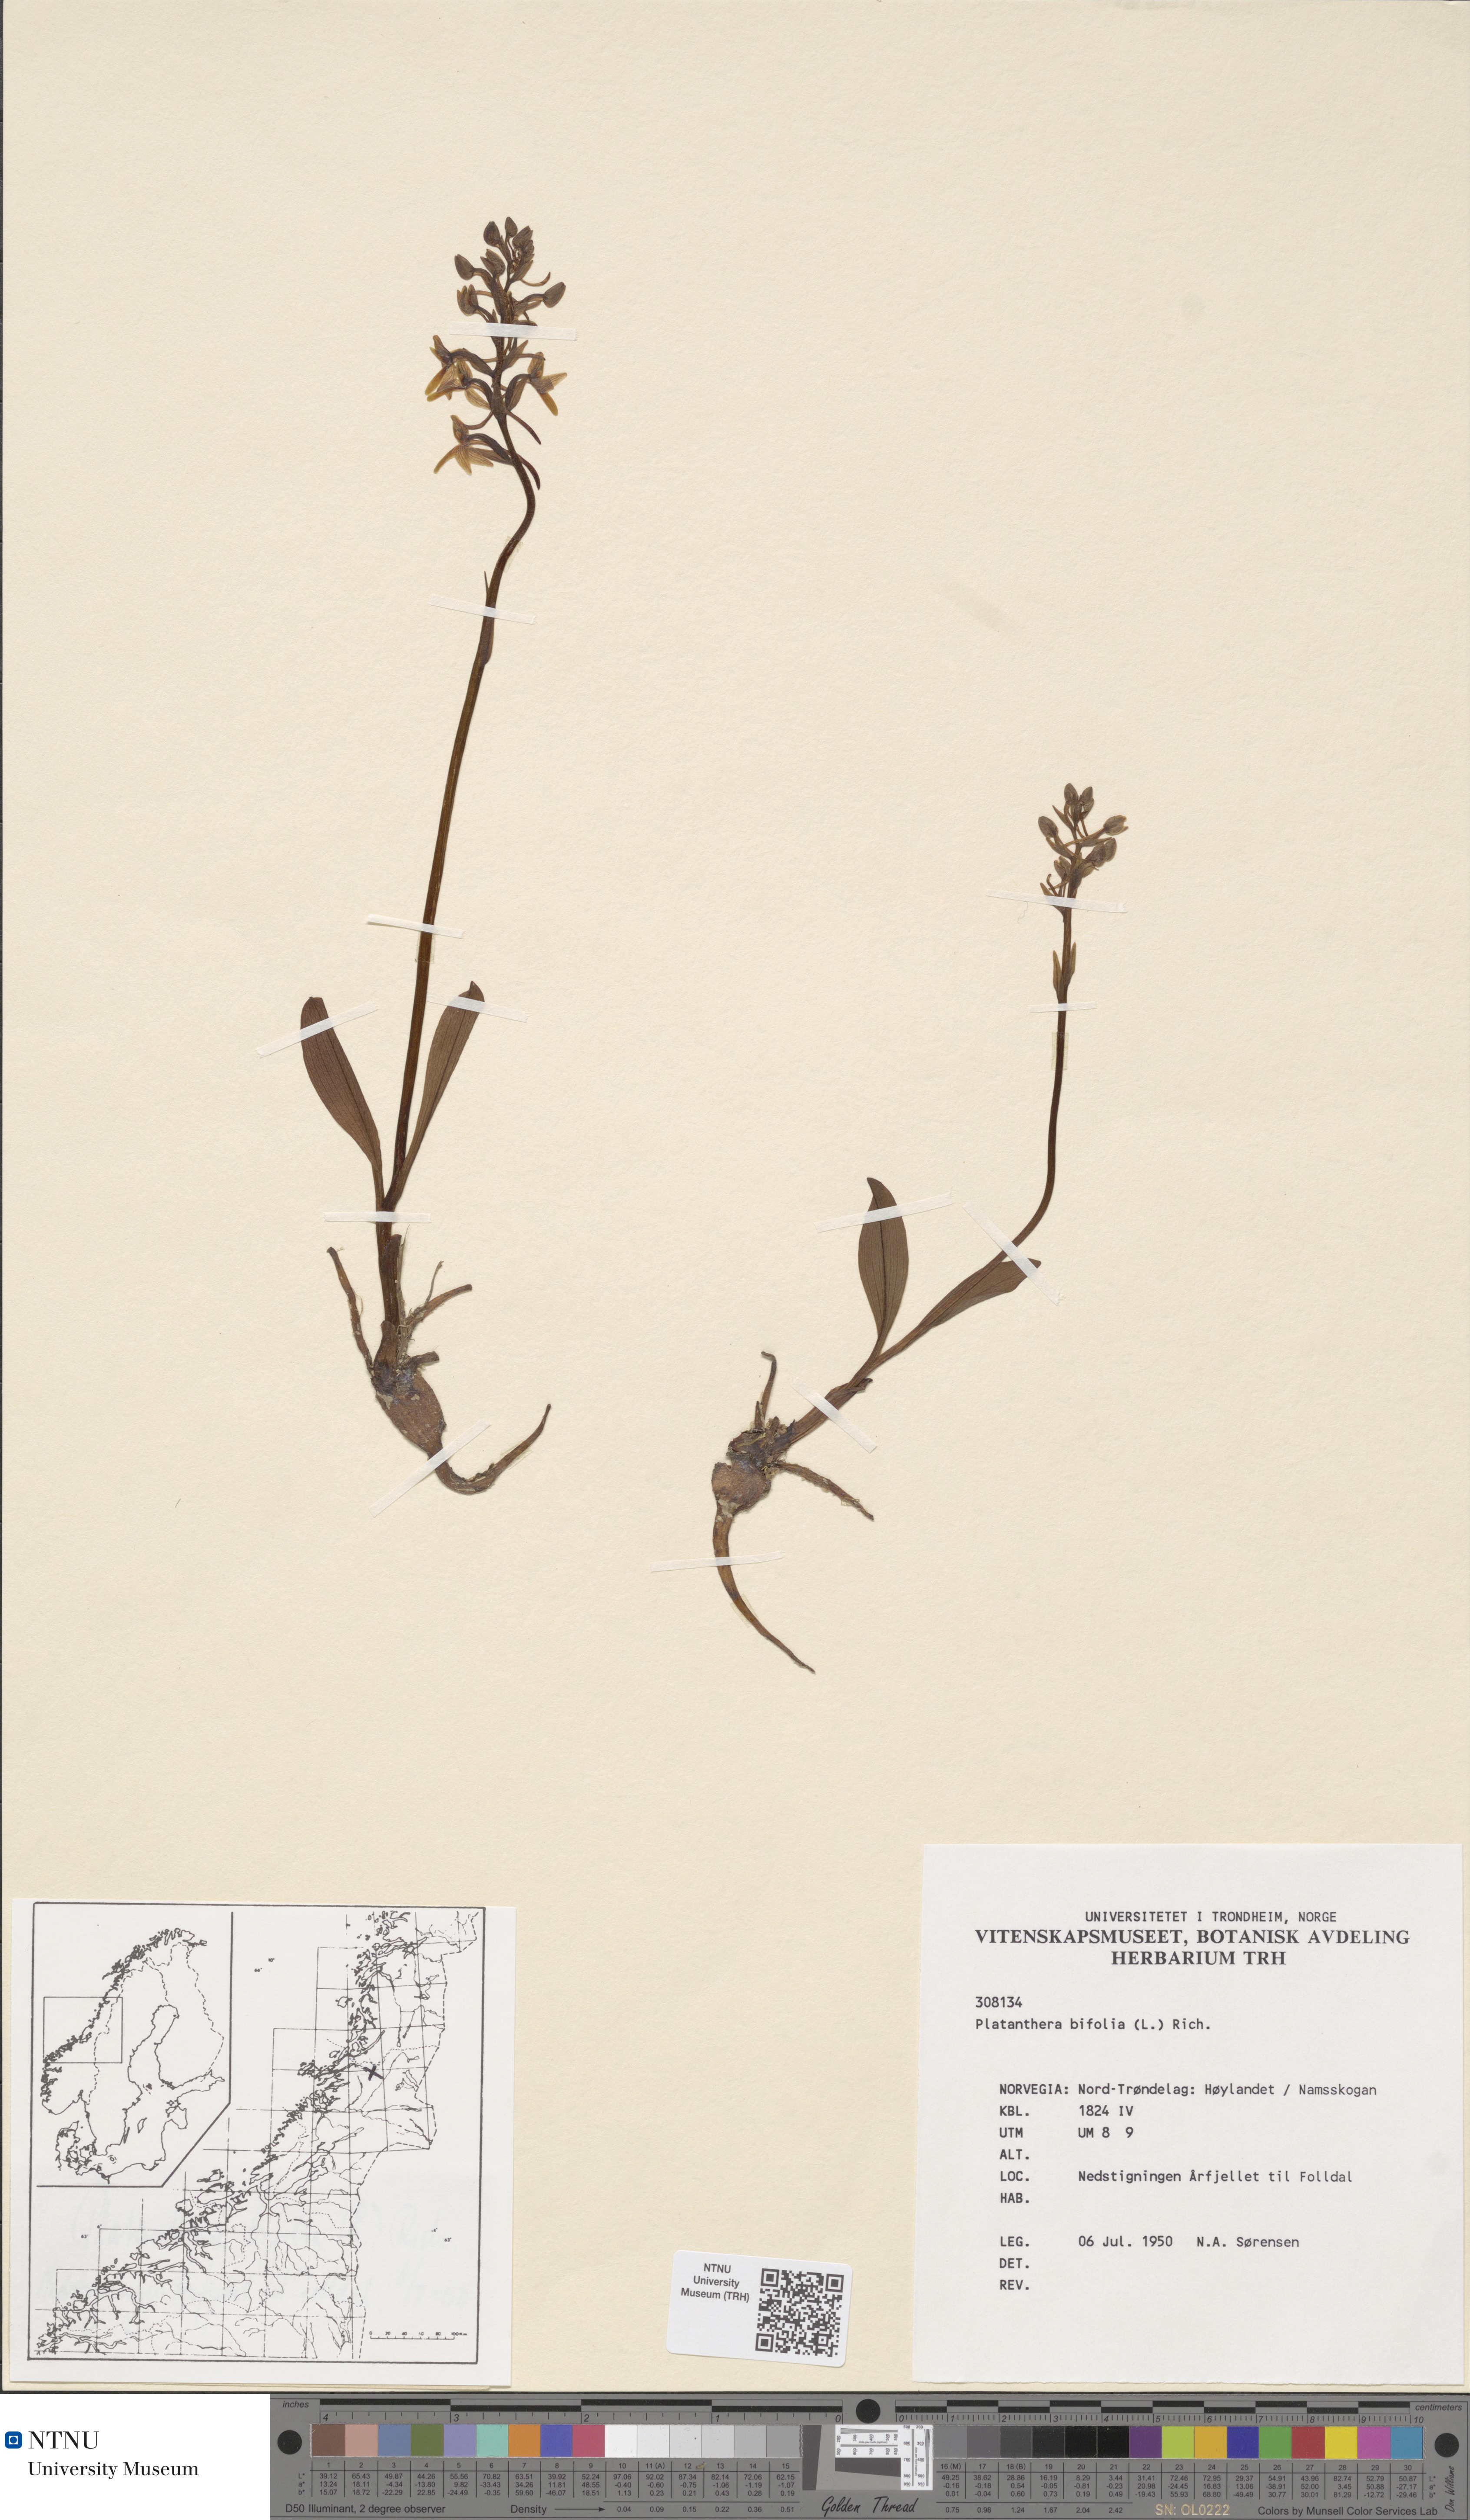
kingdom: Plantae
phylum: Tracheophyta
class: Liliopsida
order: Asparagales
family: Orchidaceae
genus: Platanthera
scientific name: Platanthera bifolia
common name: Lesser butterfly-orchid
